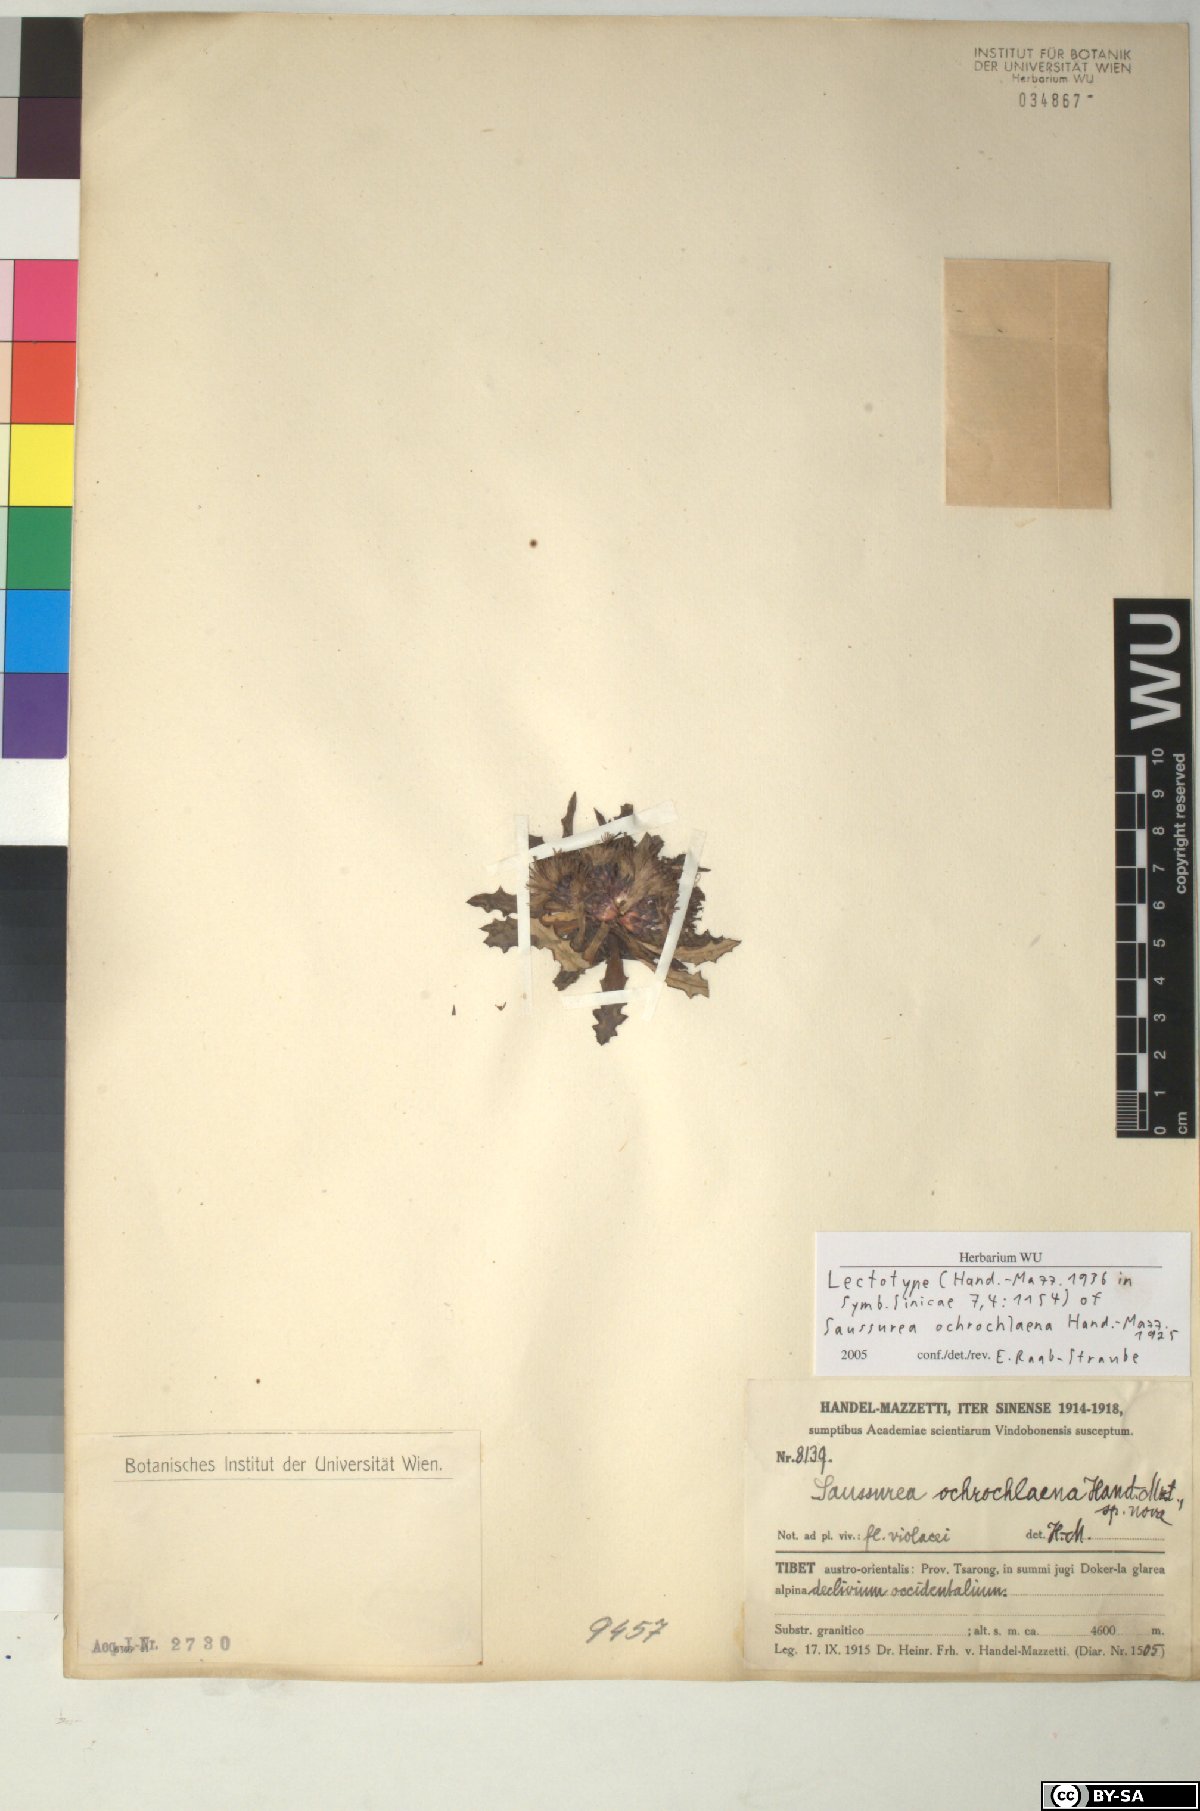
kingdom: Plantae
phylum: Tracheophyta
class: Magnoliopsida
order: Asterales
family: Asteraceae
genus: Saussurea
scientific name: Saussurea salwinensis
